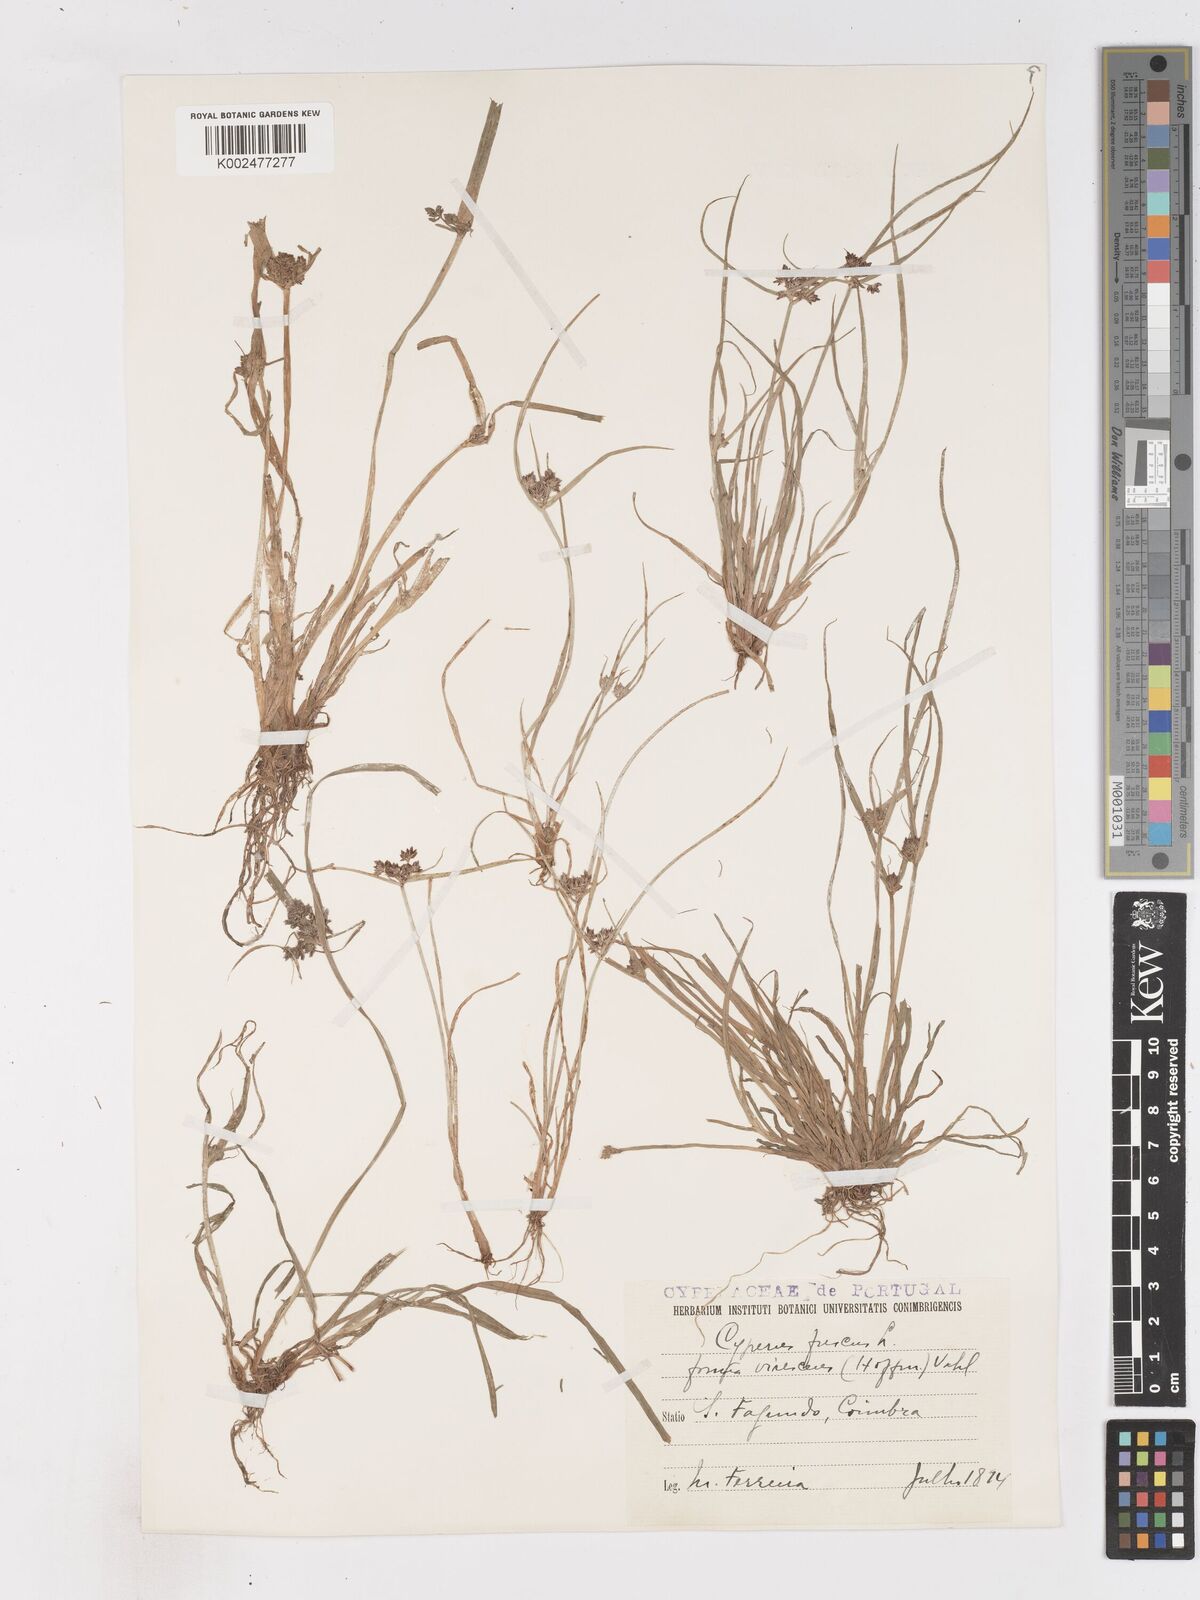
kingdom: Plantae
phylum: Tracheophyta
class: Liliopsida
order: Poales
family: Cyperaceae
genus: Cyperus
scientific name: Cyperus fuscus
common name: Brown galingale
